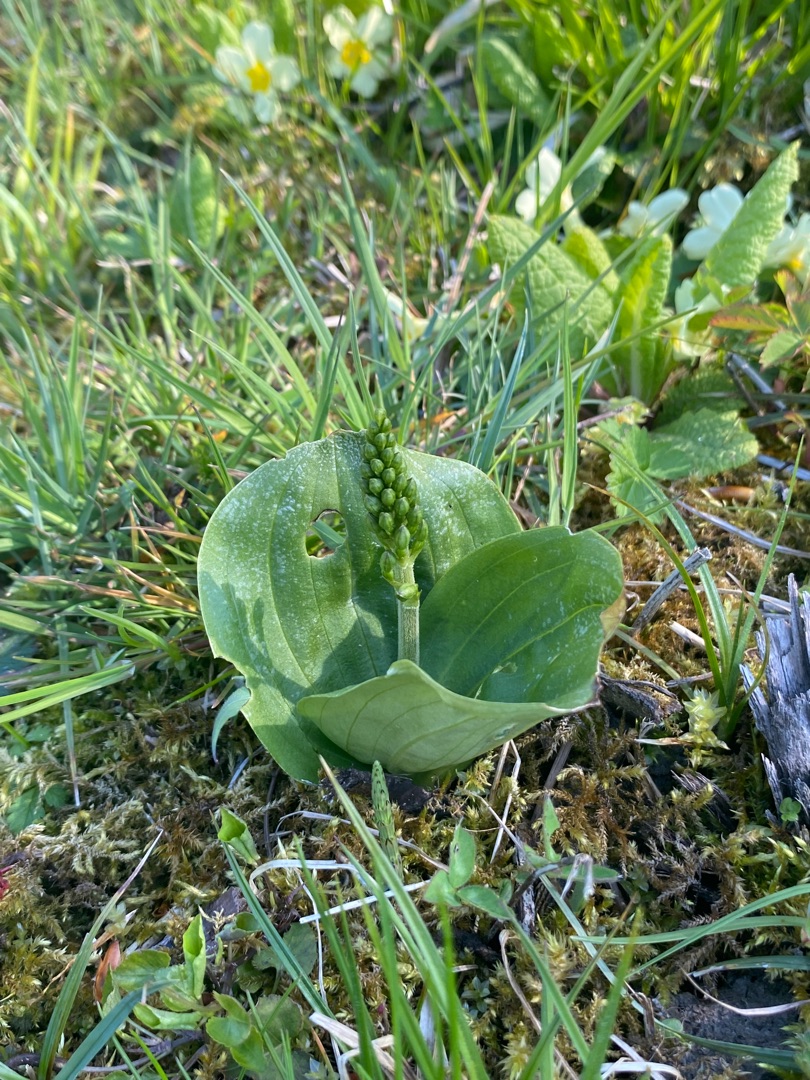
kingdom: Plantae
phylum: Tracheophyta
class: Liliopsida
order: Asparagales
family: Orchidaceae
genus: Neottia
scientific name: Neottia ovata
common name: Ægbladet fliglæbe
